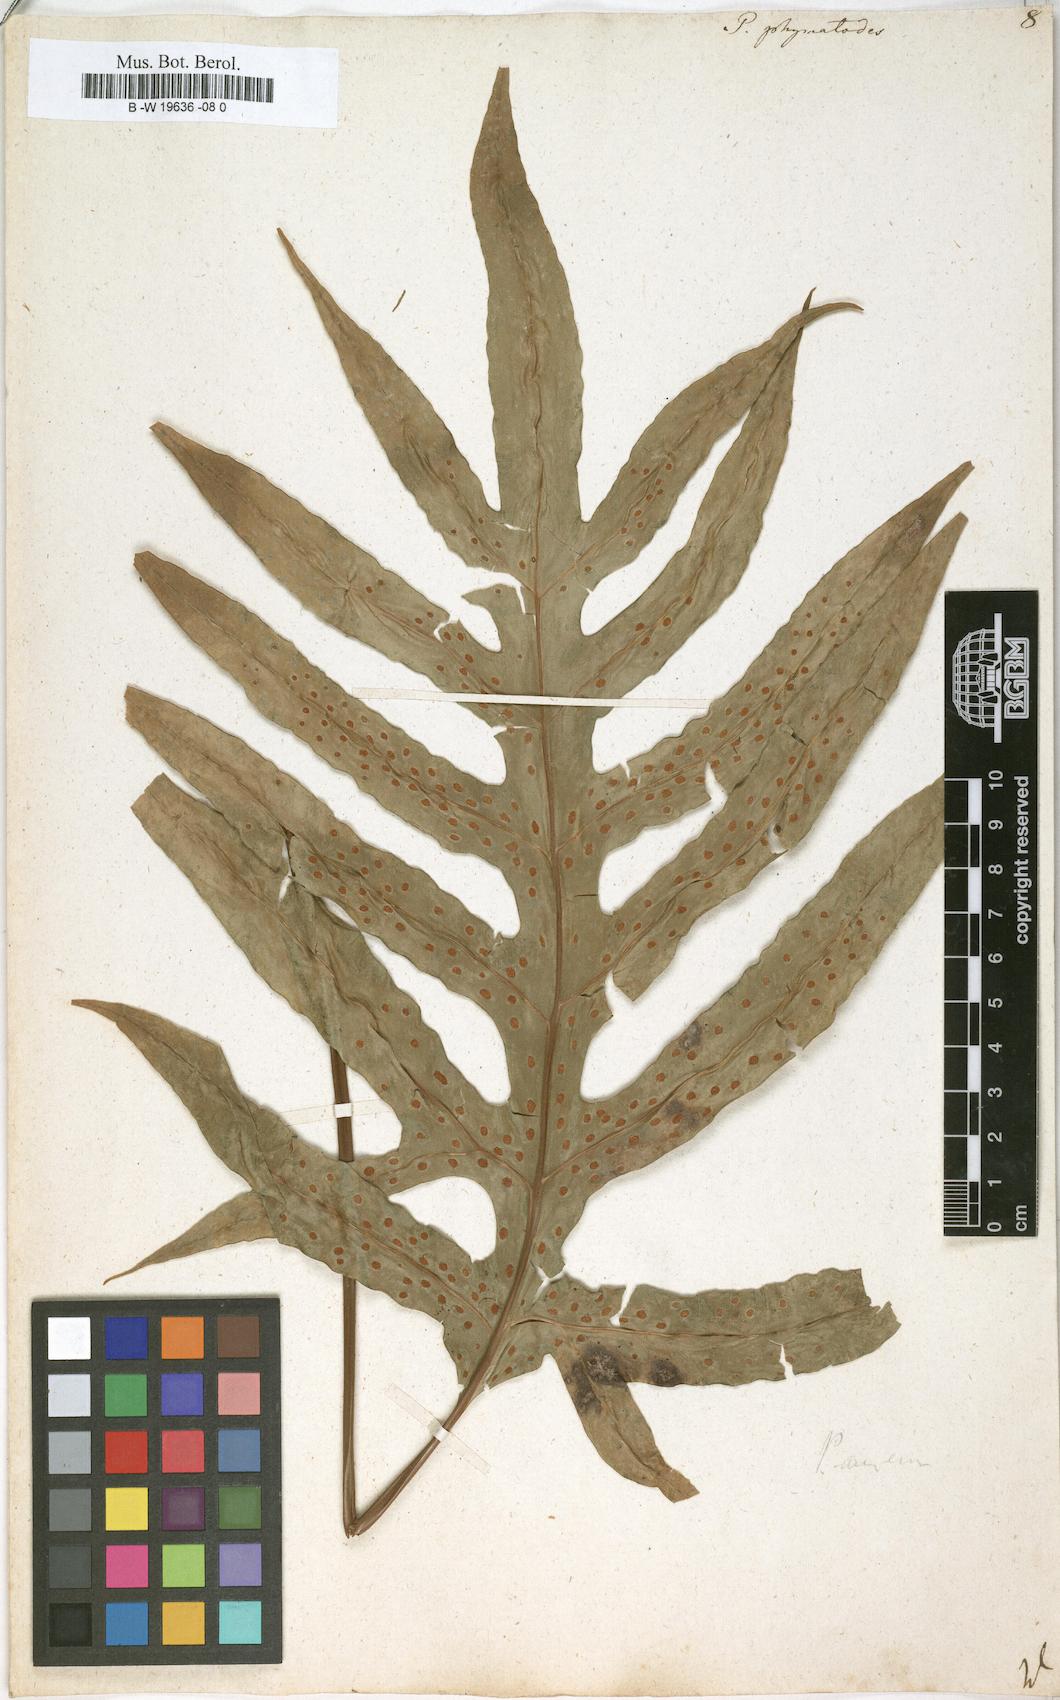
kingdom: Plantae
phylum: Tracheophyta
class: Polypodiopsida
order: Polypodiales
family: Polypodiaceae
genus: Microsorum
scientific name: Microsorum scolopendria
